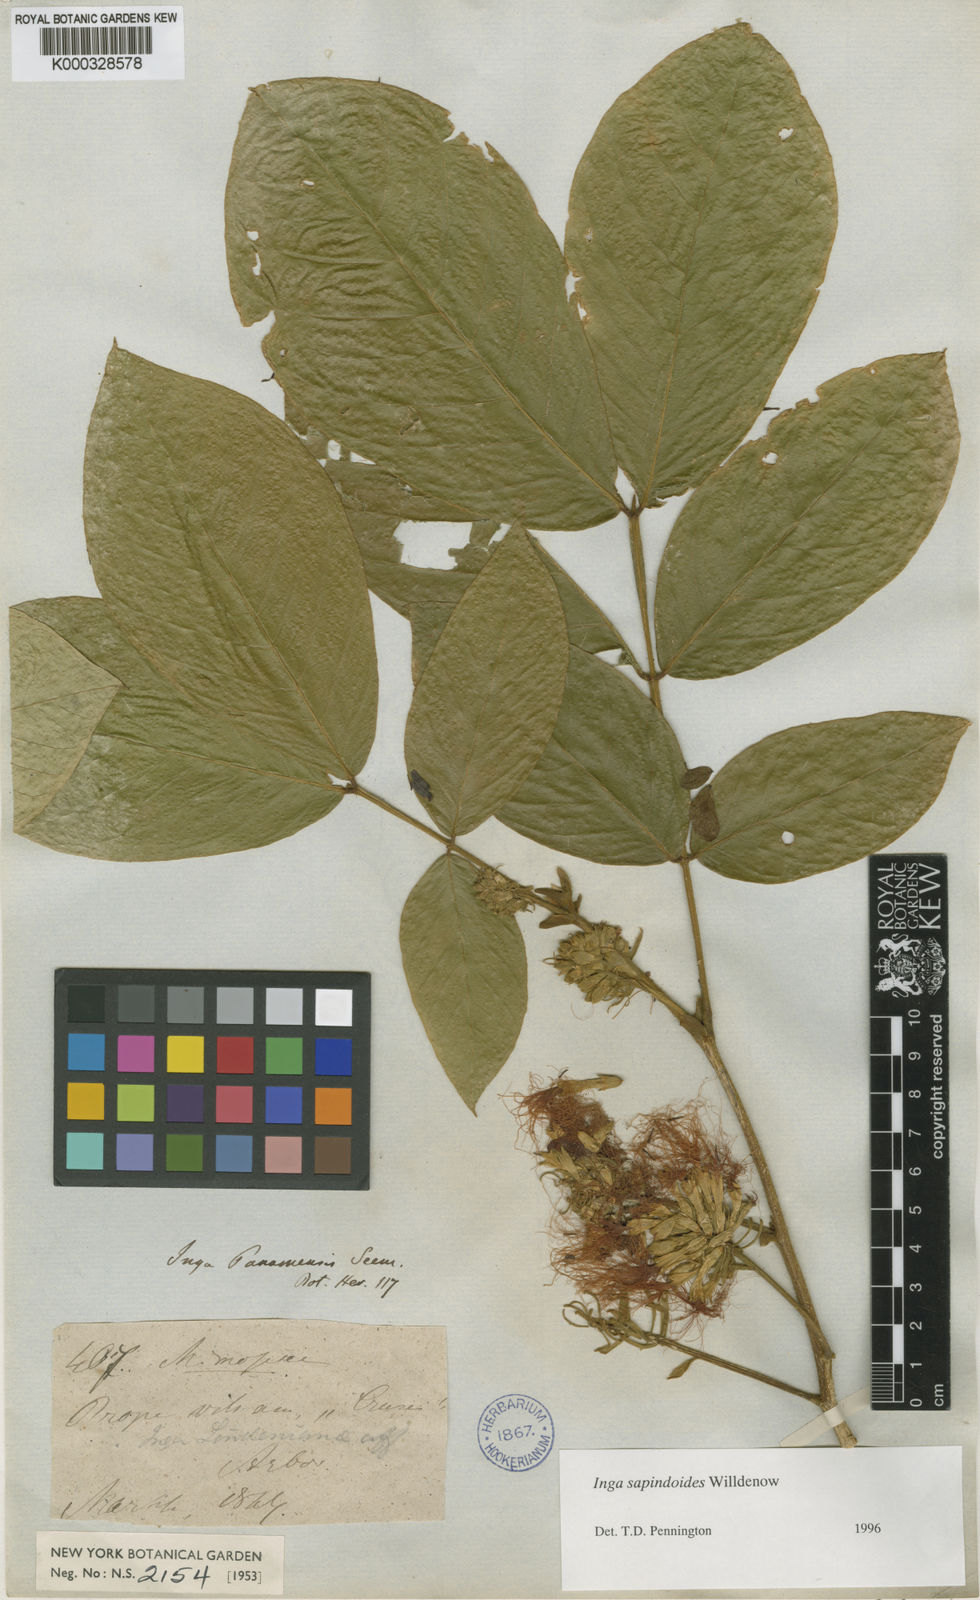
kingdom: Plantae
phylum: Tracheophyta
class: Magnoliopsida
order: Fabales
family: Fabaceae
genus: Inga
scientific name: Inga sapindoides
